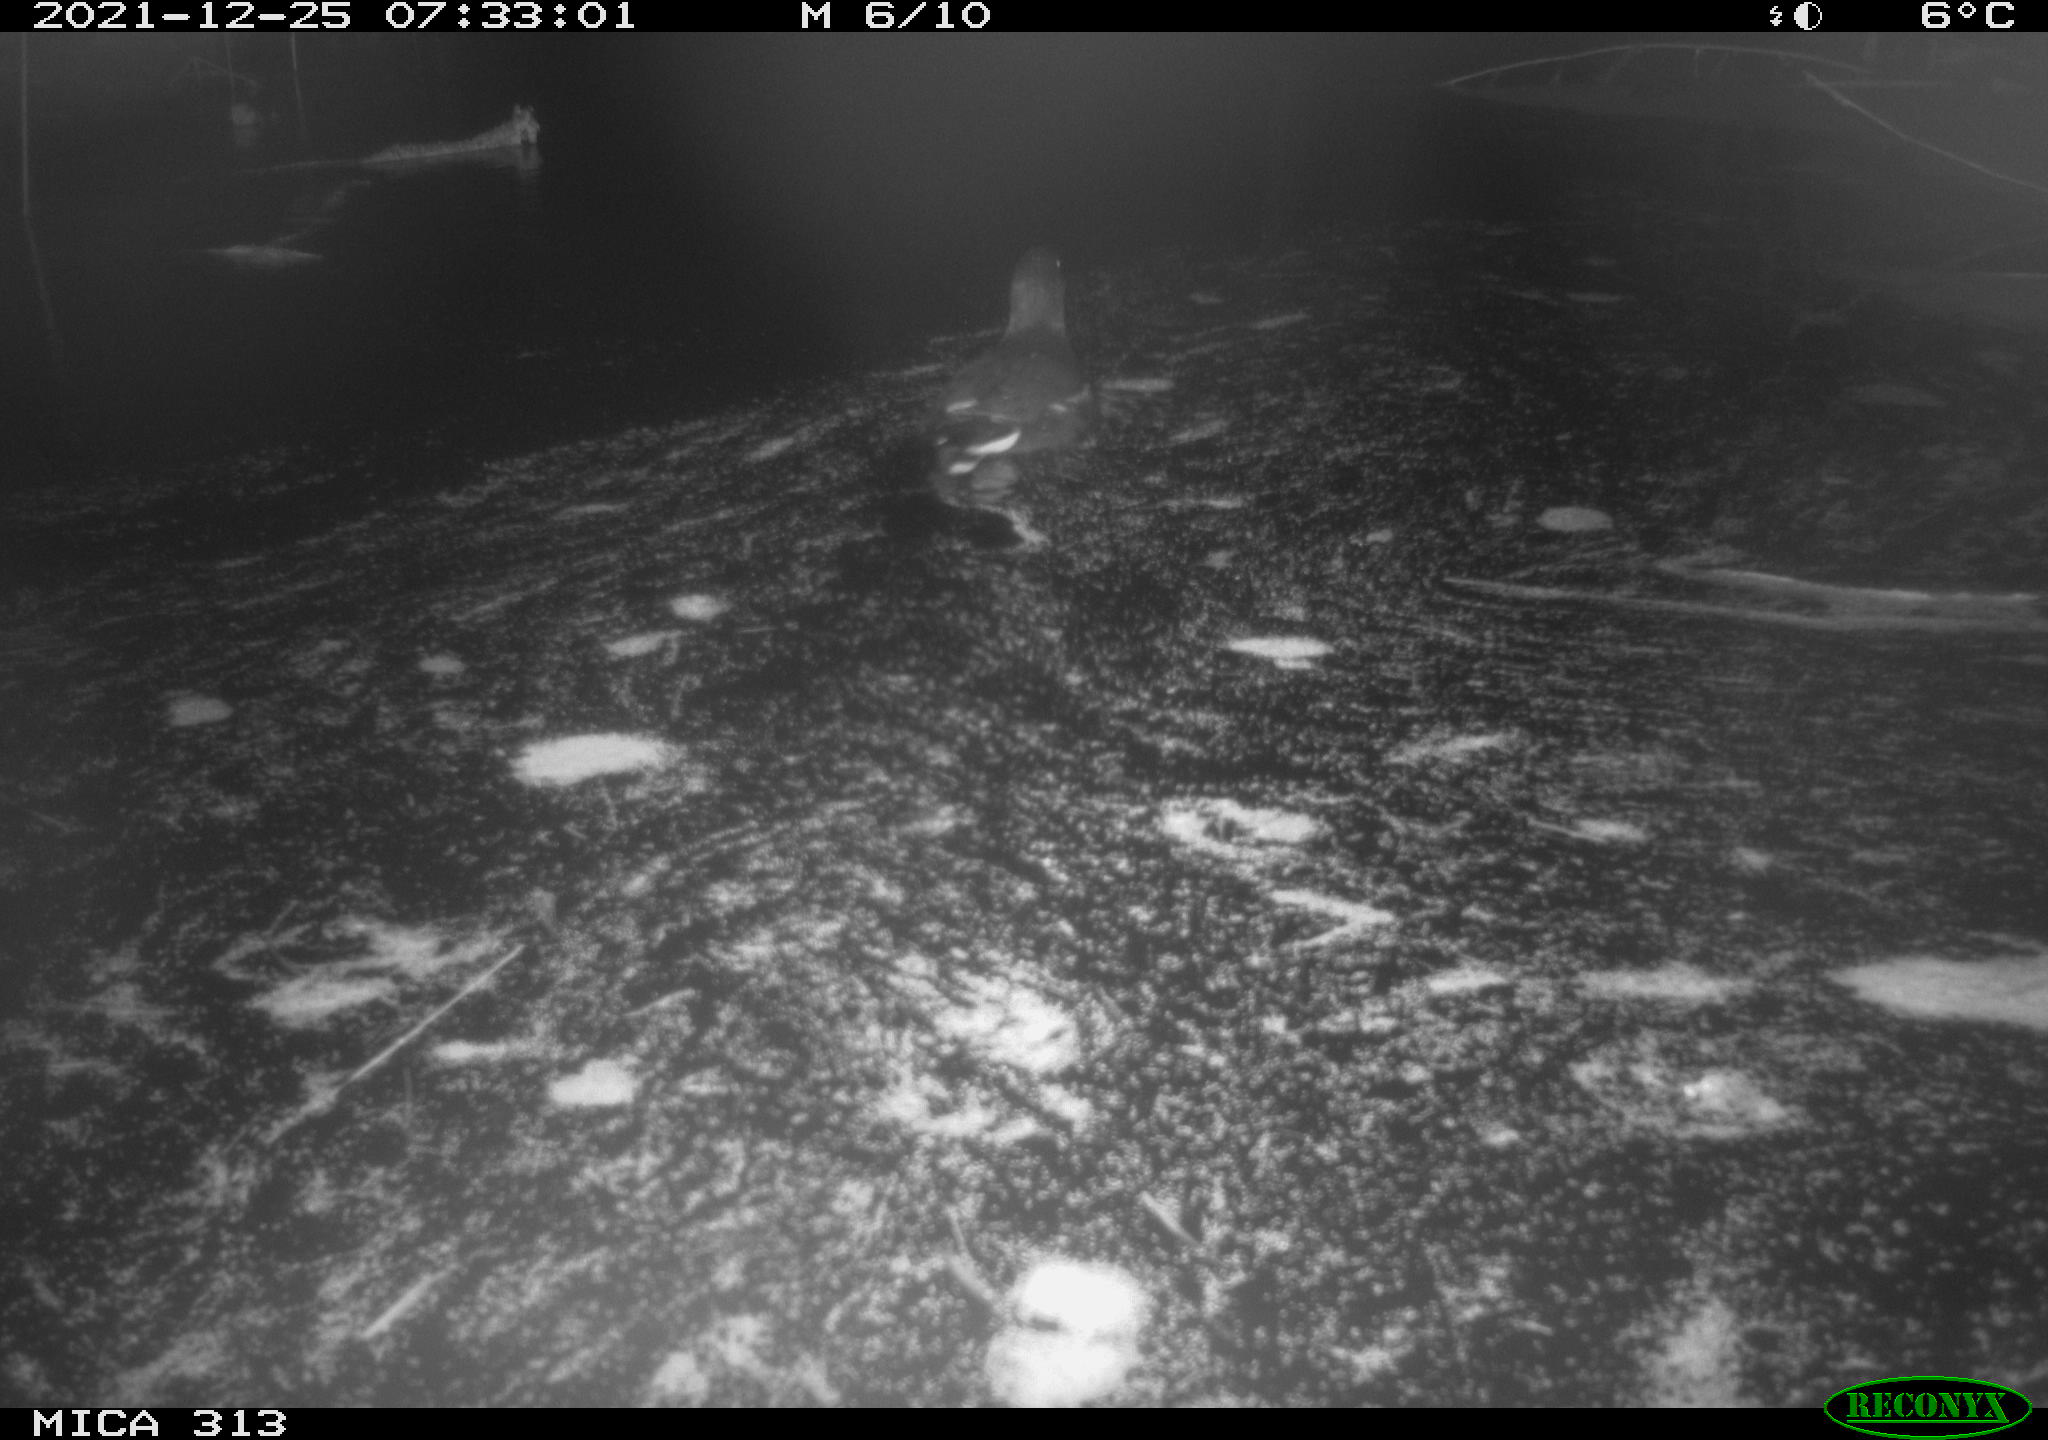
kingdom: Animalia
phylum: Chordata
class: Aves
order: Gruiformes
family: Rallidae
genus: Gallinula
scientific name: Gallinula chloropus
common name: Common moorhen
